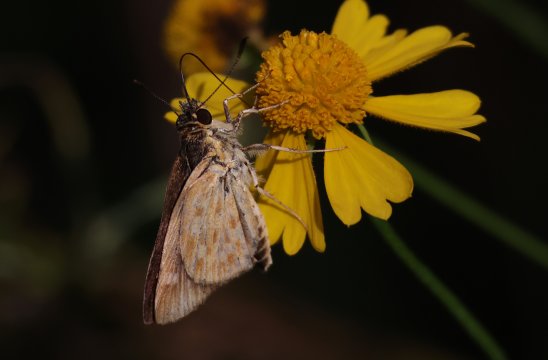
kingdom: Animalia
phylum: Arthropoda
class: Insecta
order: Lepidoptera
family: Hesperiidae
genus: Mastor
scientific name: Mastor carolina
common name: Carolina Roadside-Skipper
